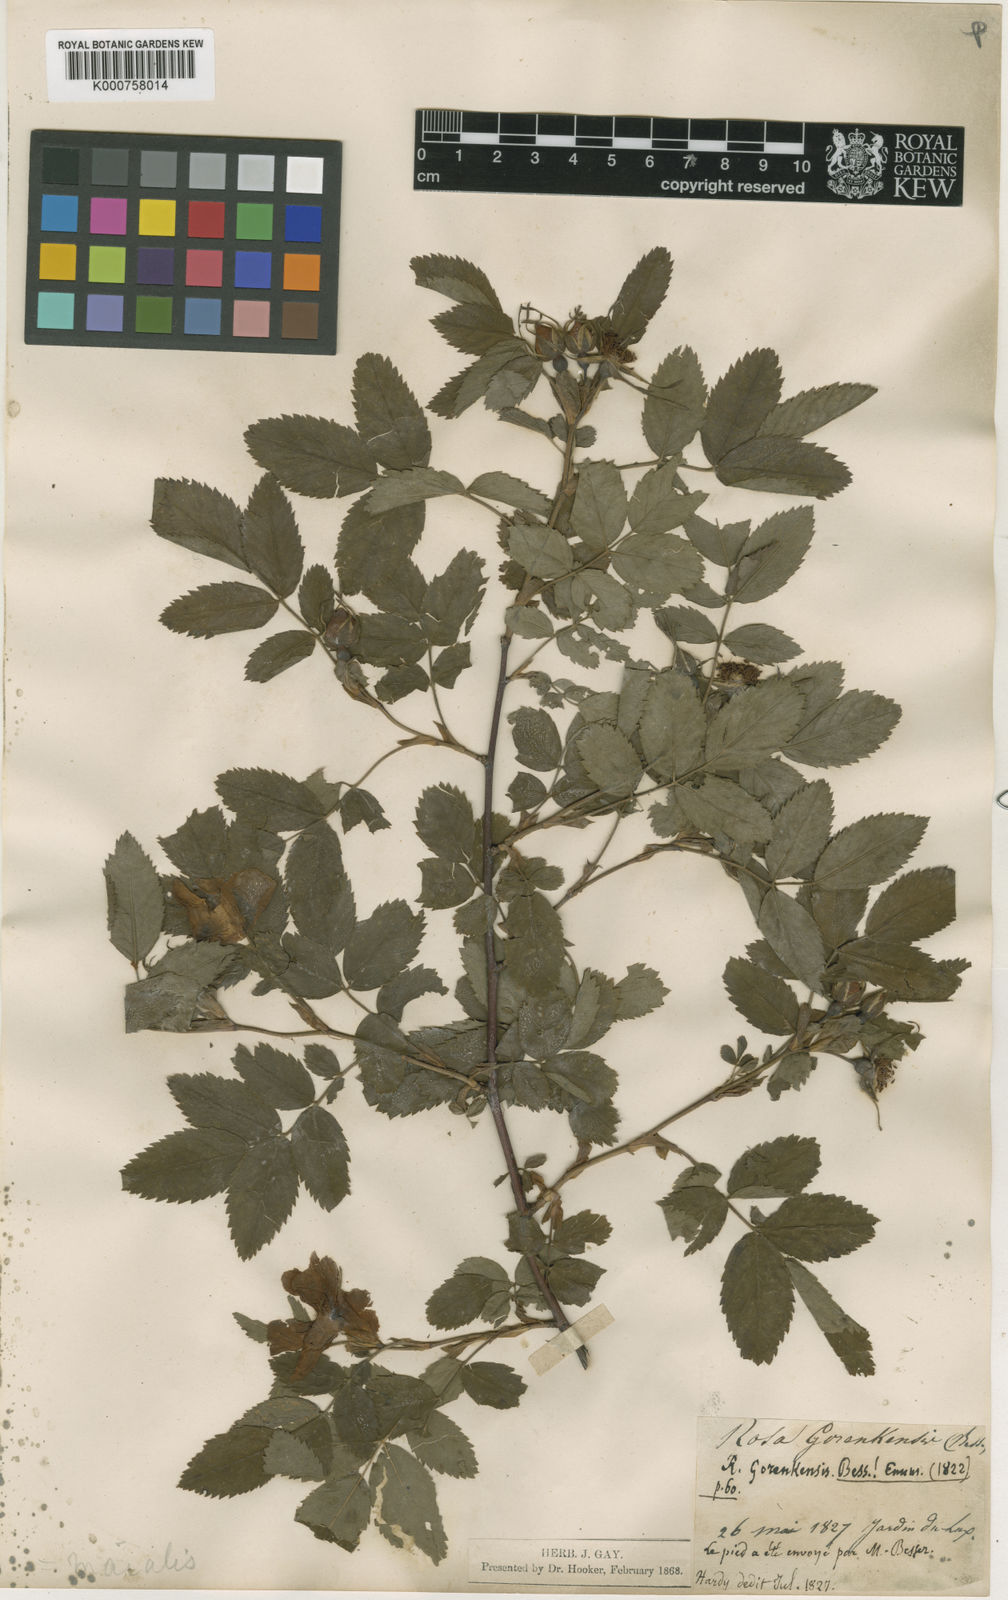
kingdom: Plantae
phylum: Tracheophyta
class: Magnoliopsida
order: Rosales
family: Rosaceae
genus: Rosa
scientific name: Rosa
